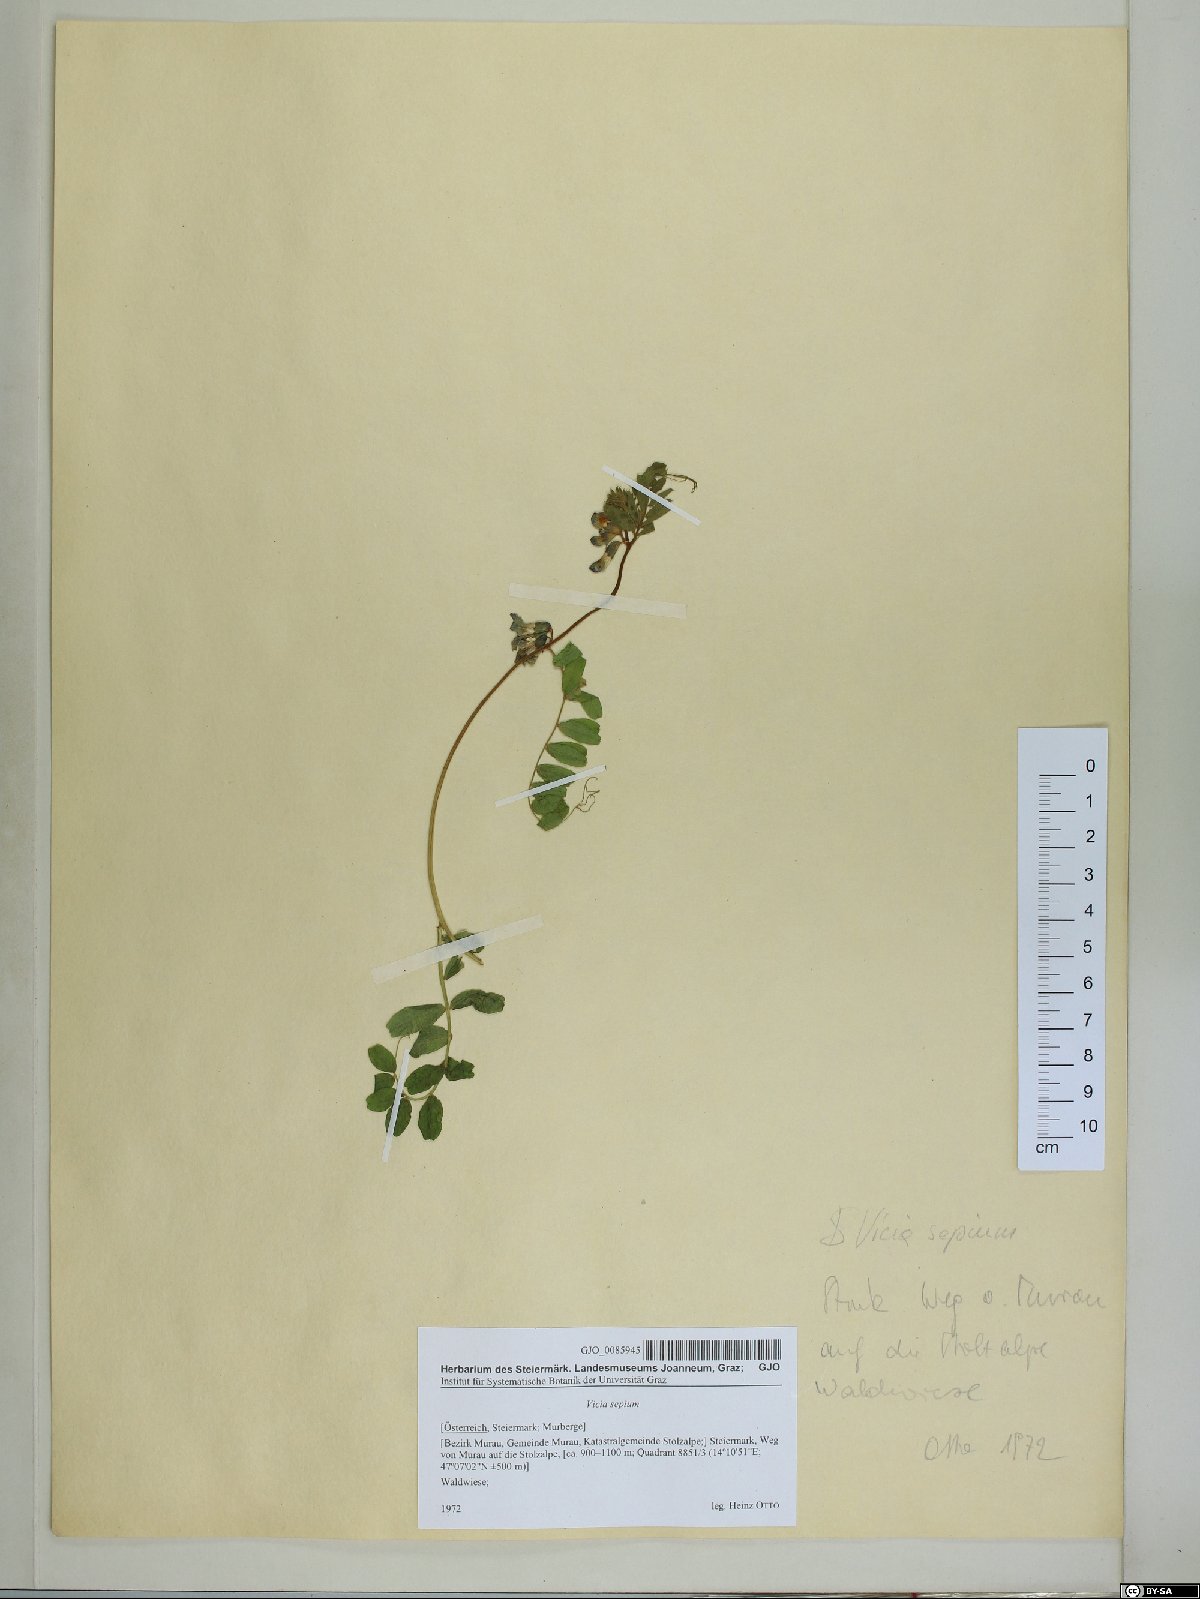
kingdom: Plantae
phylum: Tracheophyta
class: Magnoliopsida
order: Fabales
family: Fabaceae
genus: Vicia
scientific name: Vicia sepium
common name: Bush vetch
